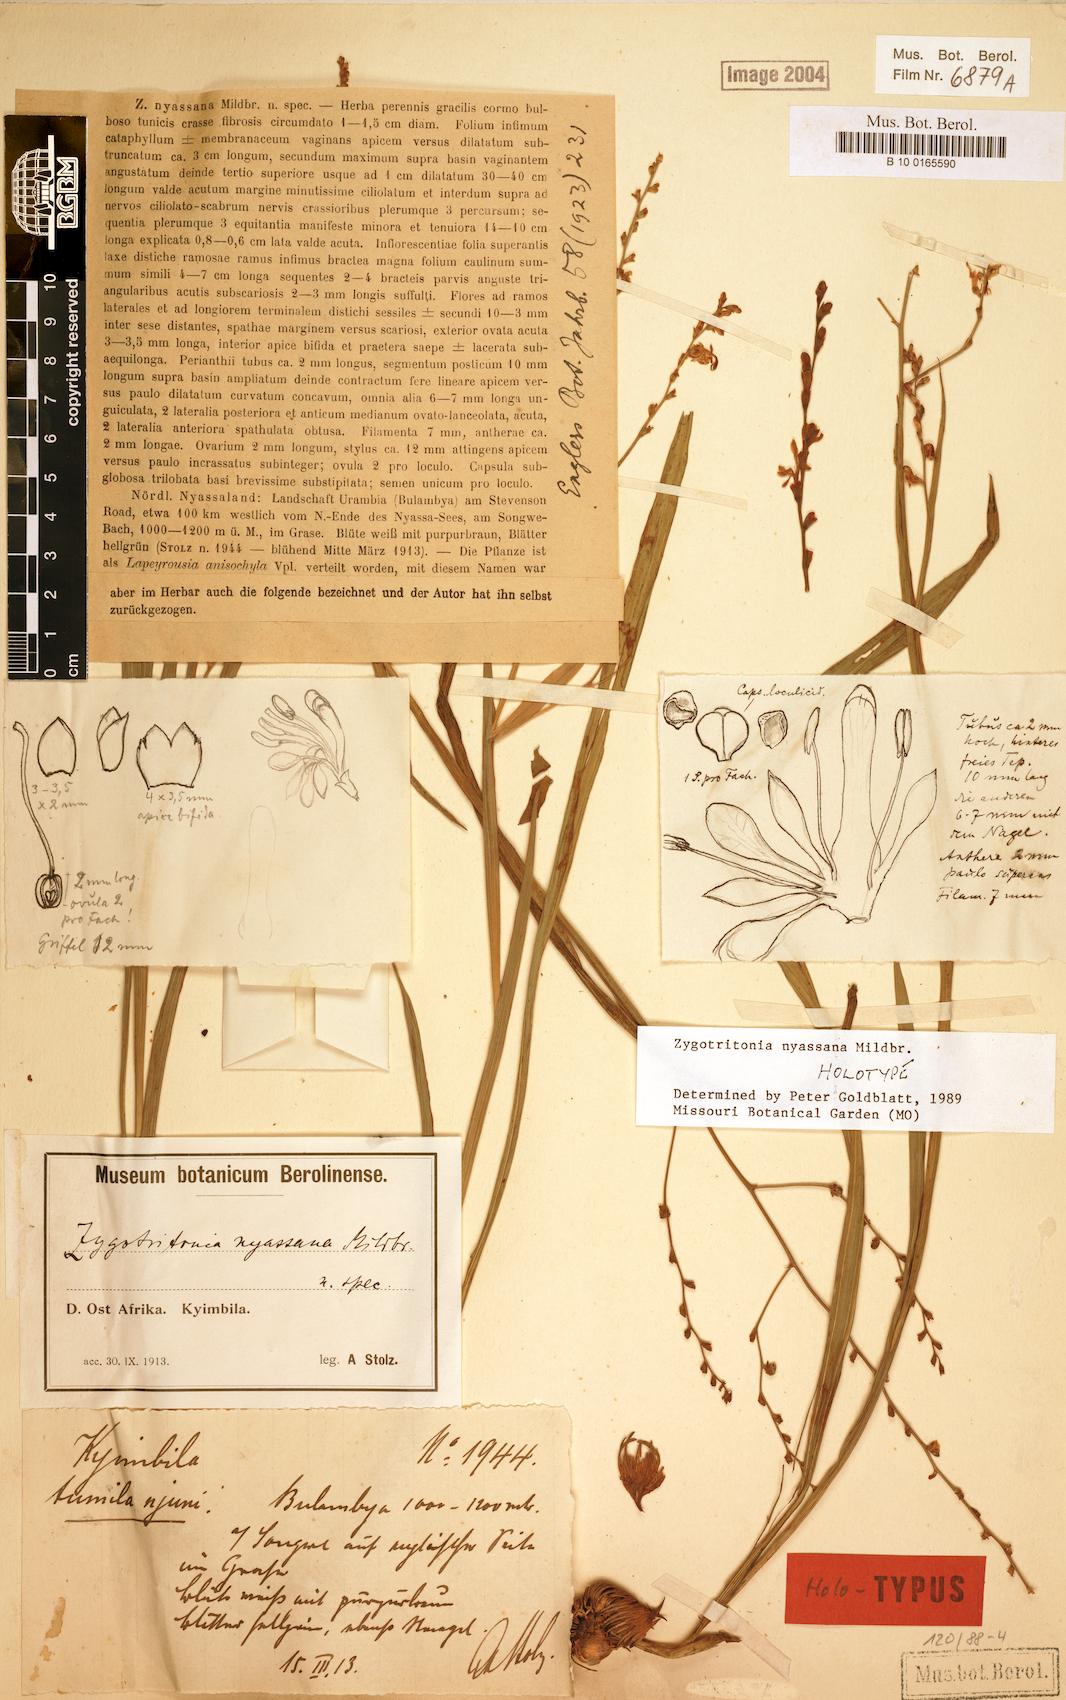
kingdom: Plantae
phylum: Tracheophyta
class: Liliopsida
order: Asparagales
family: Iridaceae
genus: Zygotritonia
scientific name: Zygotritonia nyassana
